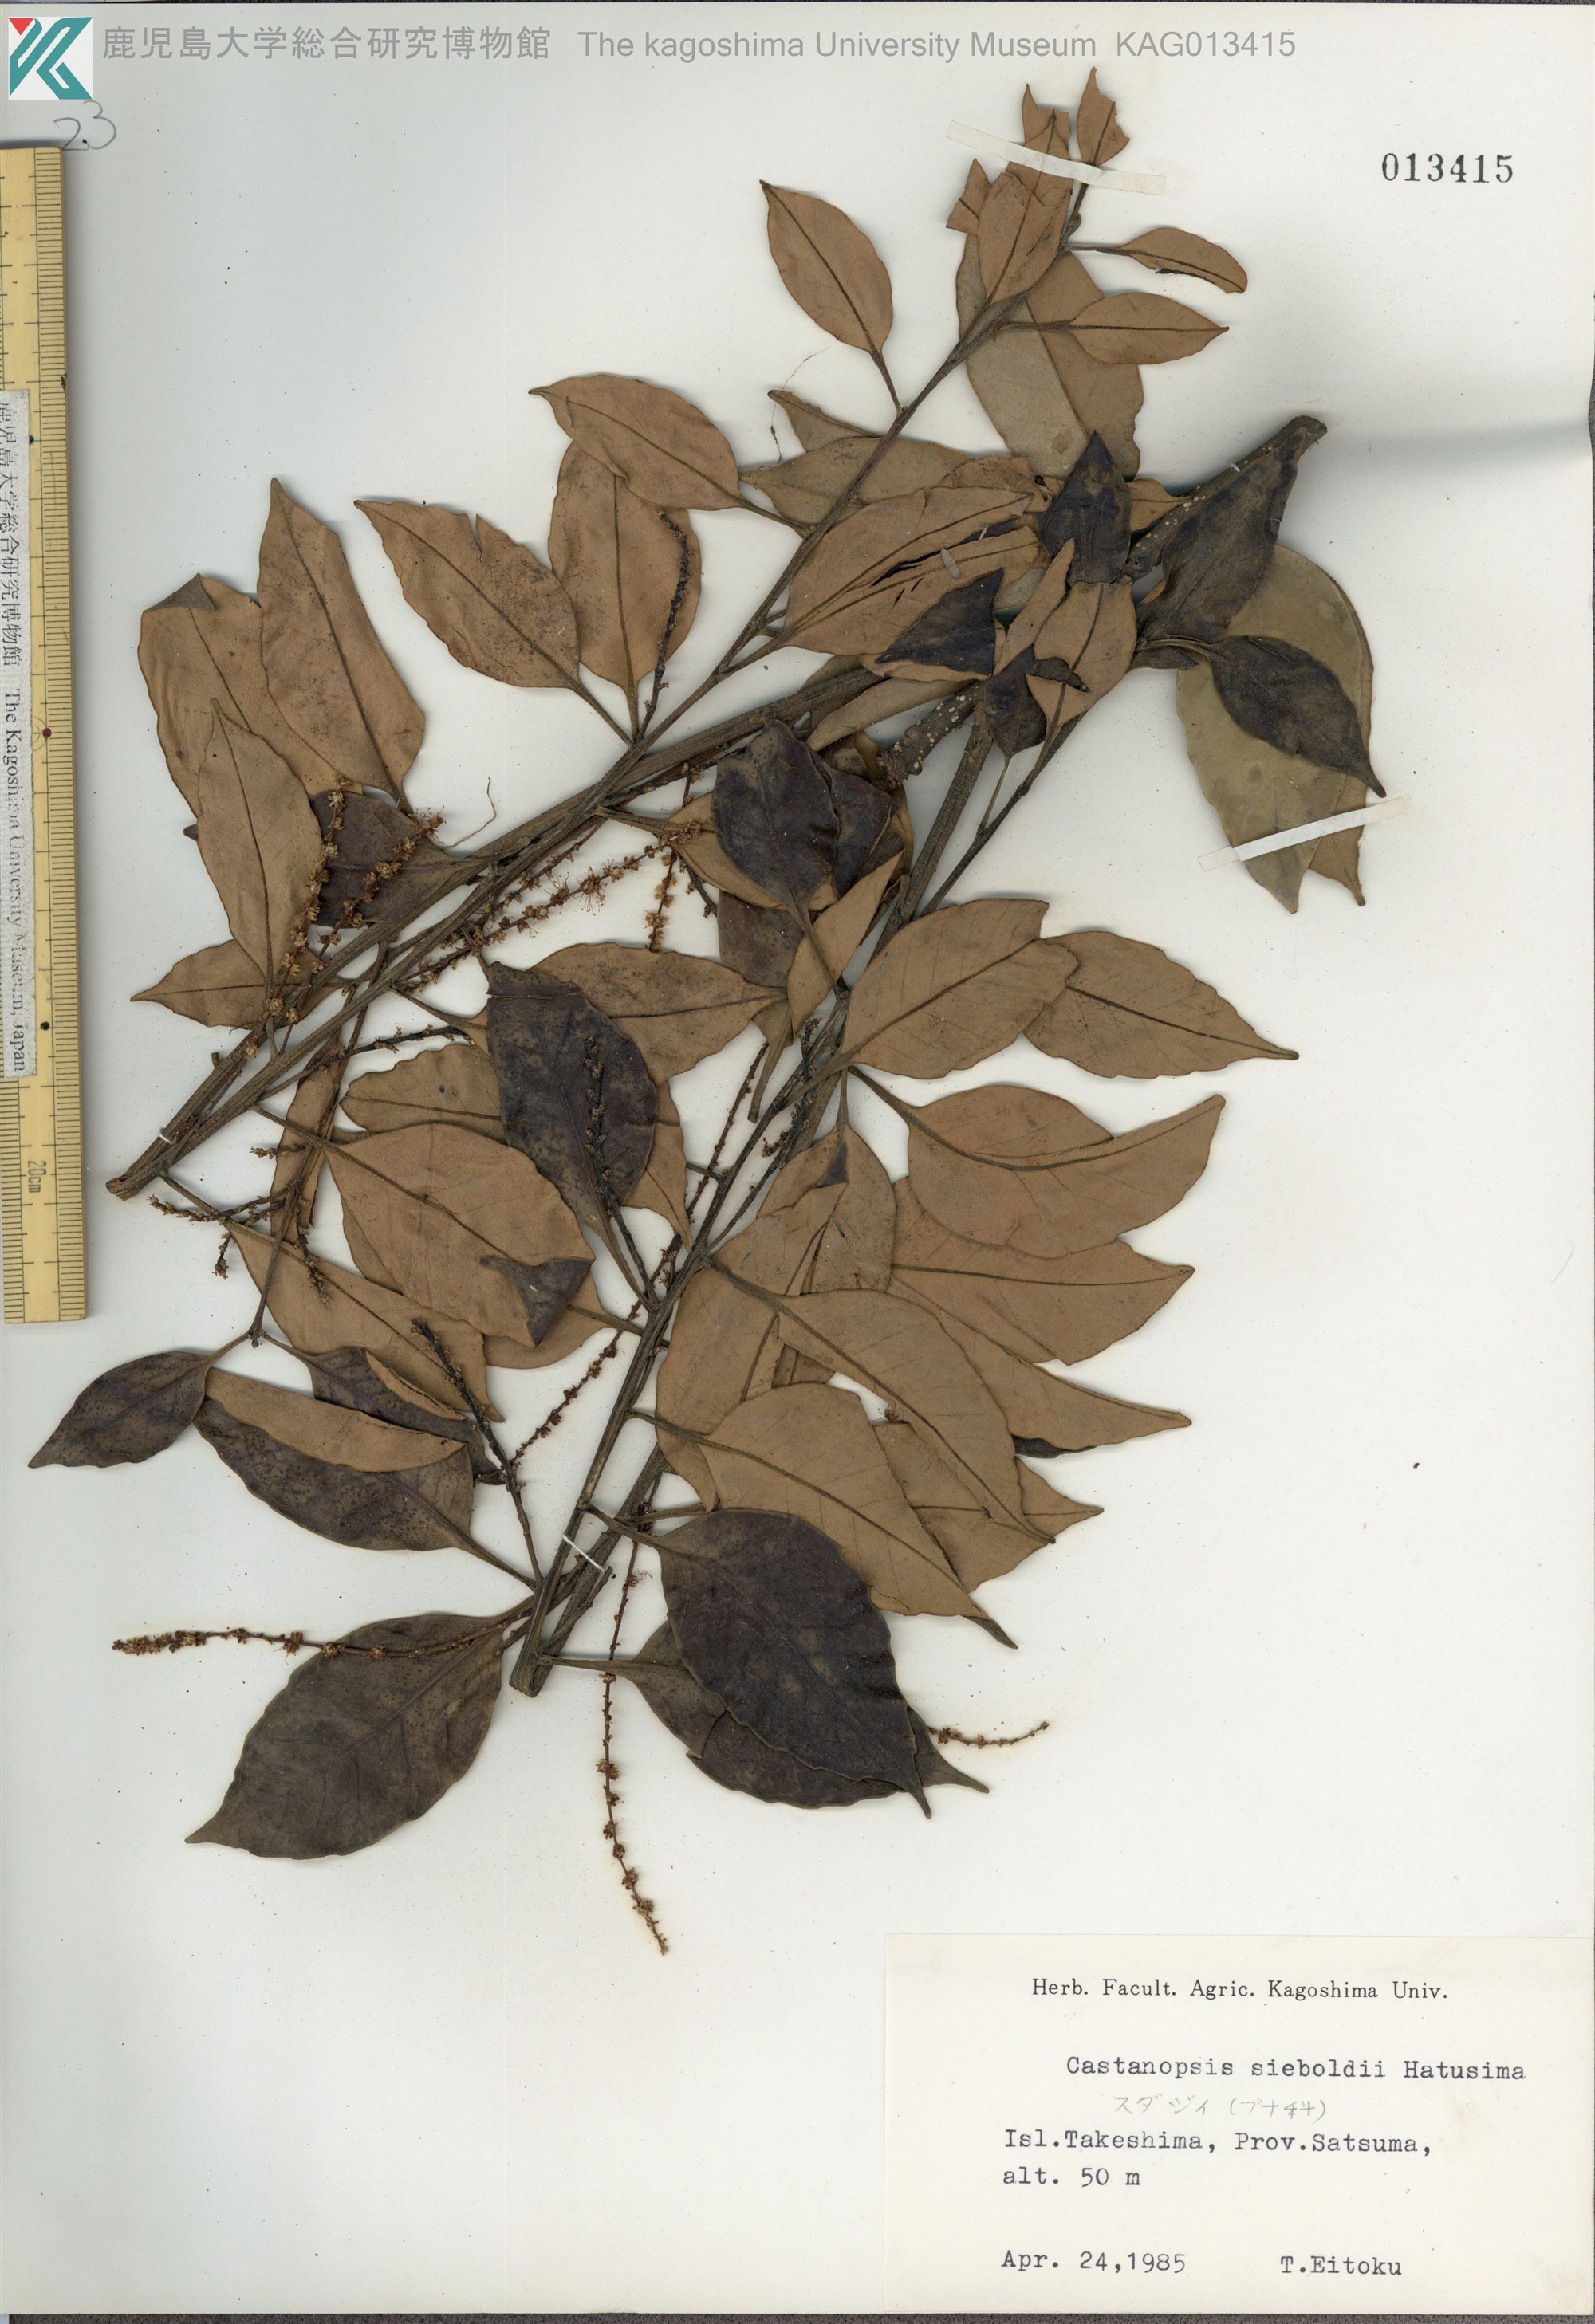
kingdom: Plantae
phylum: Tracheophyta
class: Magnoliopsida
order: Fagales
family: Fagaceae
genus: Castanopsis
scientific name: Castanopsis sieboldii
